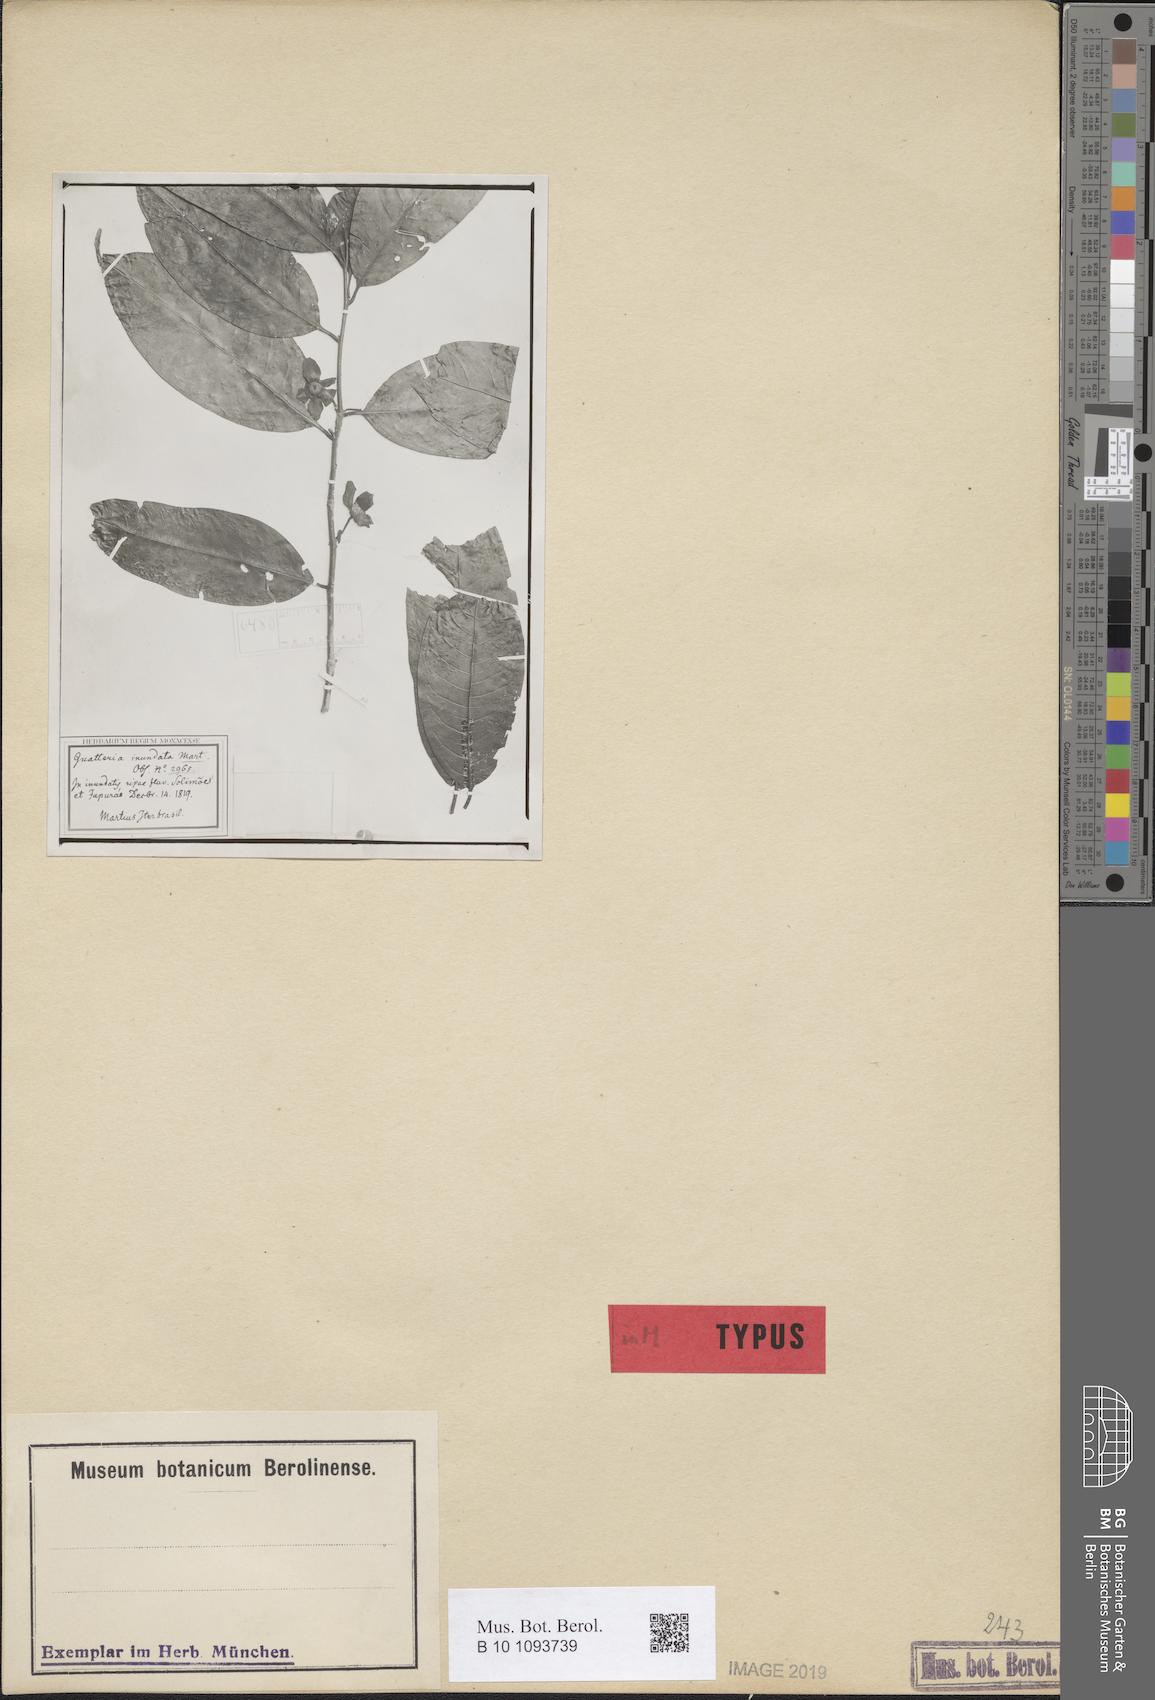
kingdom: Plantae
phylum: Tracheophyta
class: Magnoliopsida
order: Magnoliales
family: Annonaceae
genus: Guatteria
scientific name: Guatteria inundata
